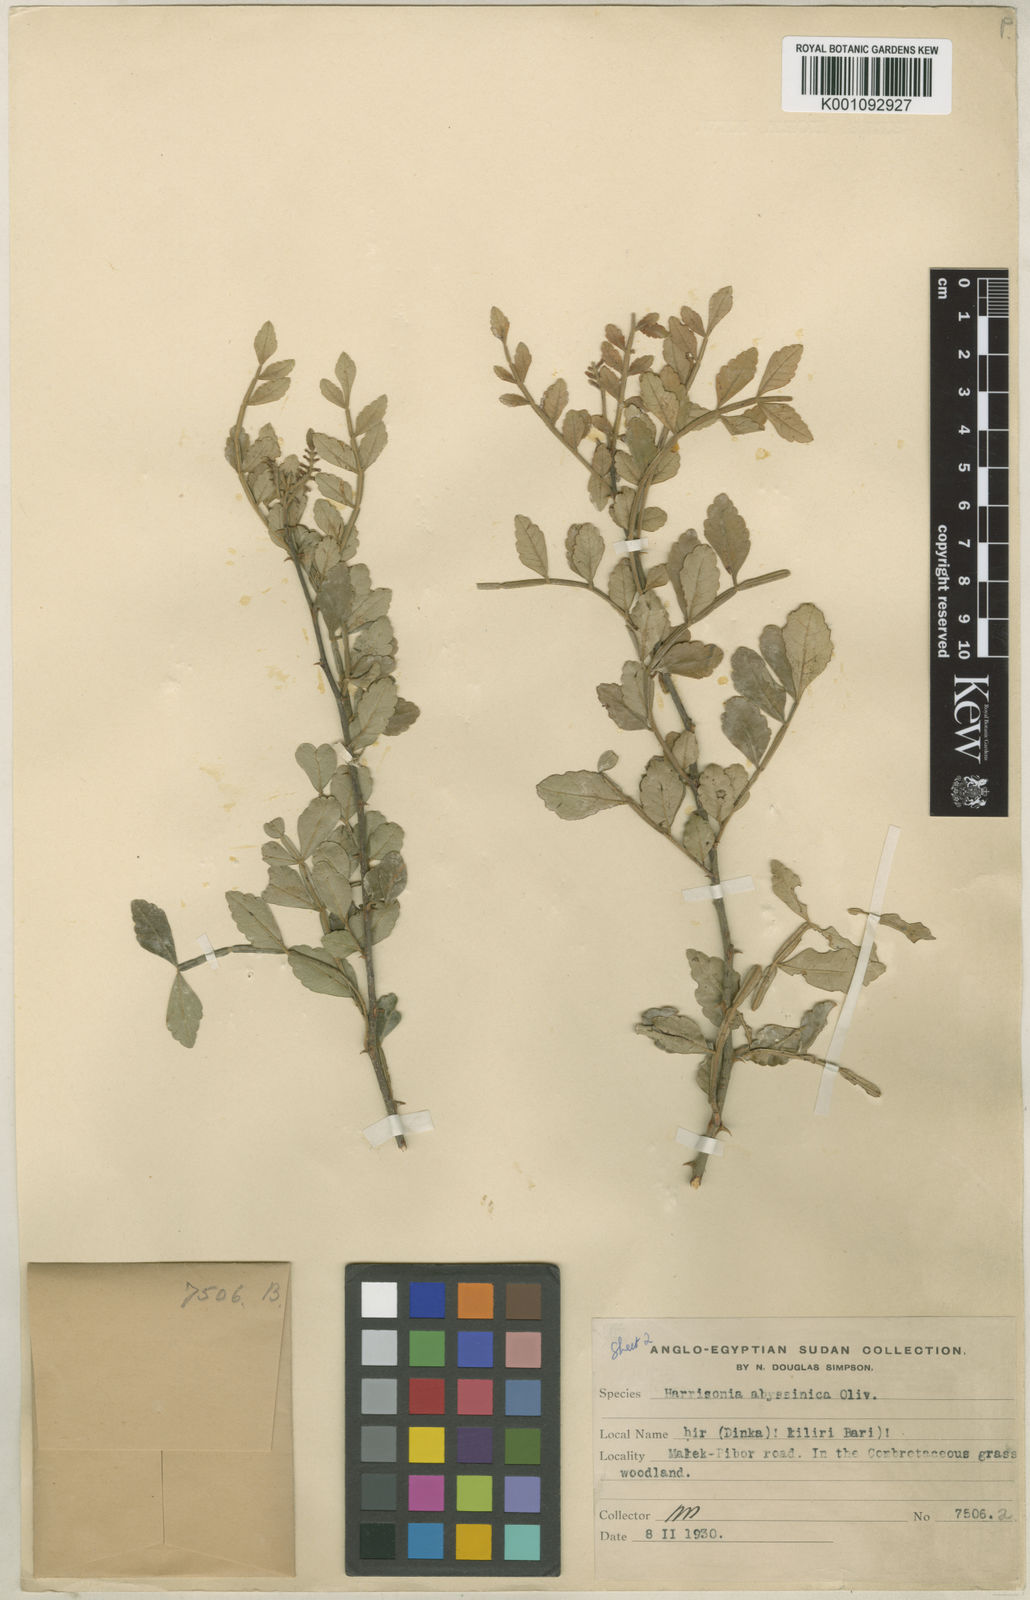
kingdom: Plantae
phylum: Tracheophyta
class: Magnoliopsida
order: Sapindales
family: Rutaceae
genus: Harrisonia
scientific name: Harrisonia abyssinica
